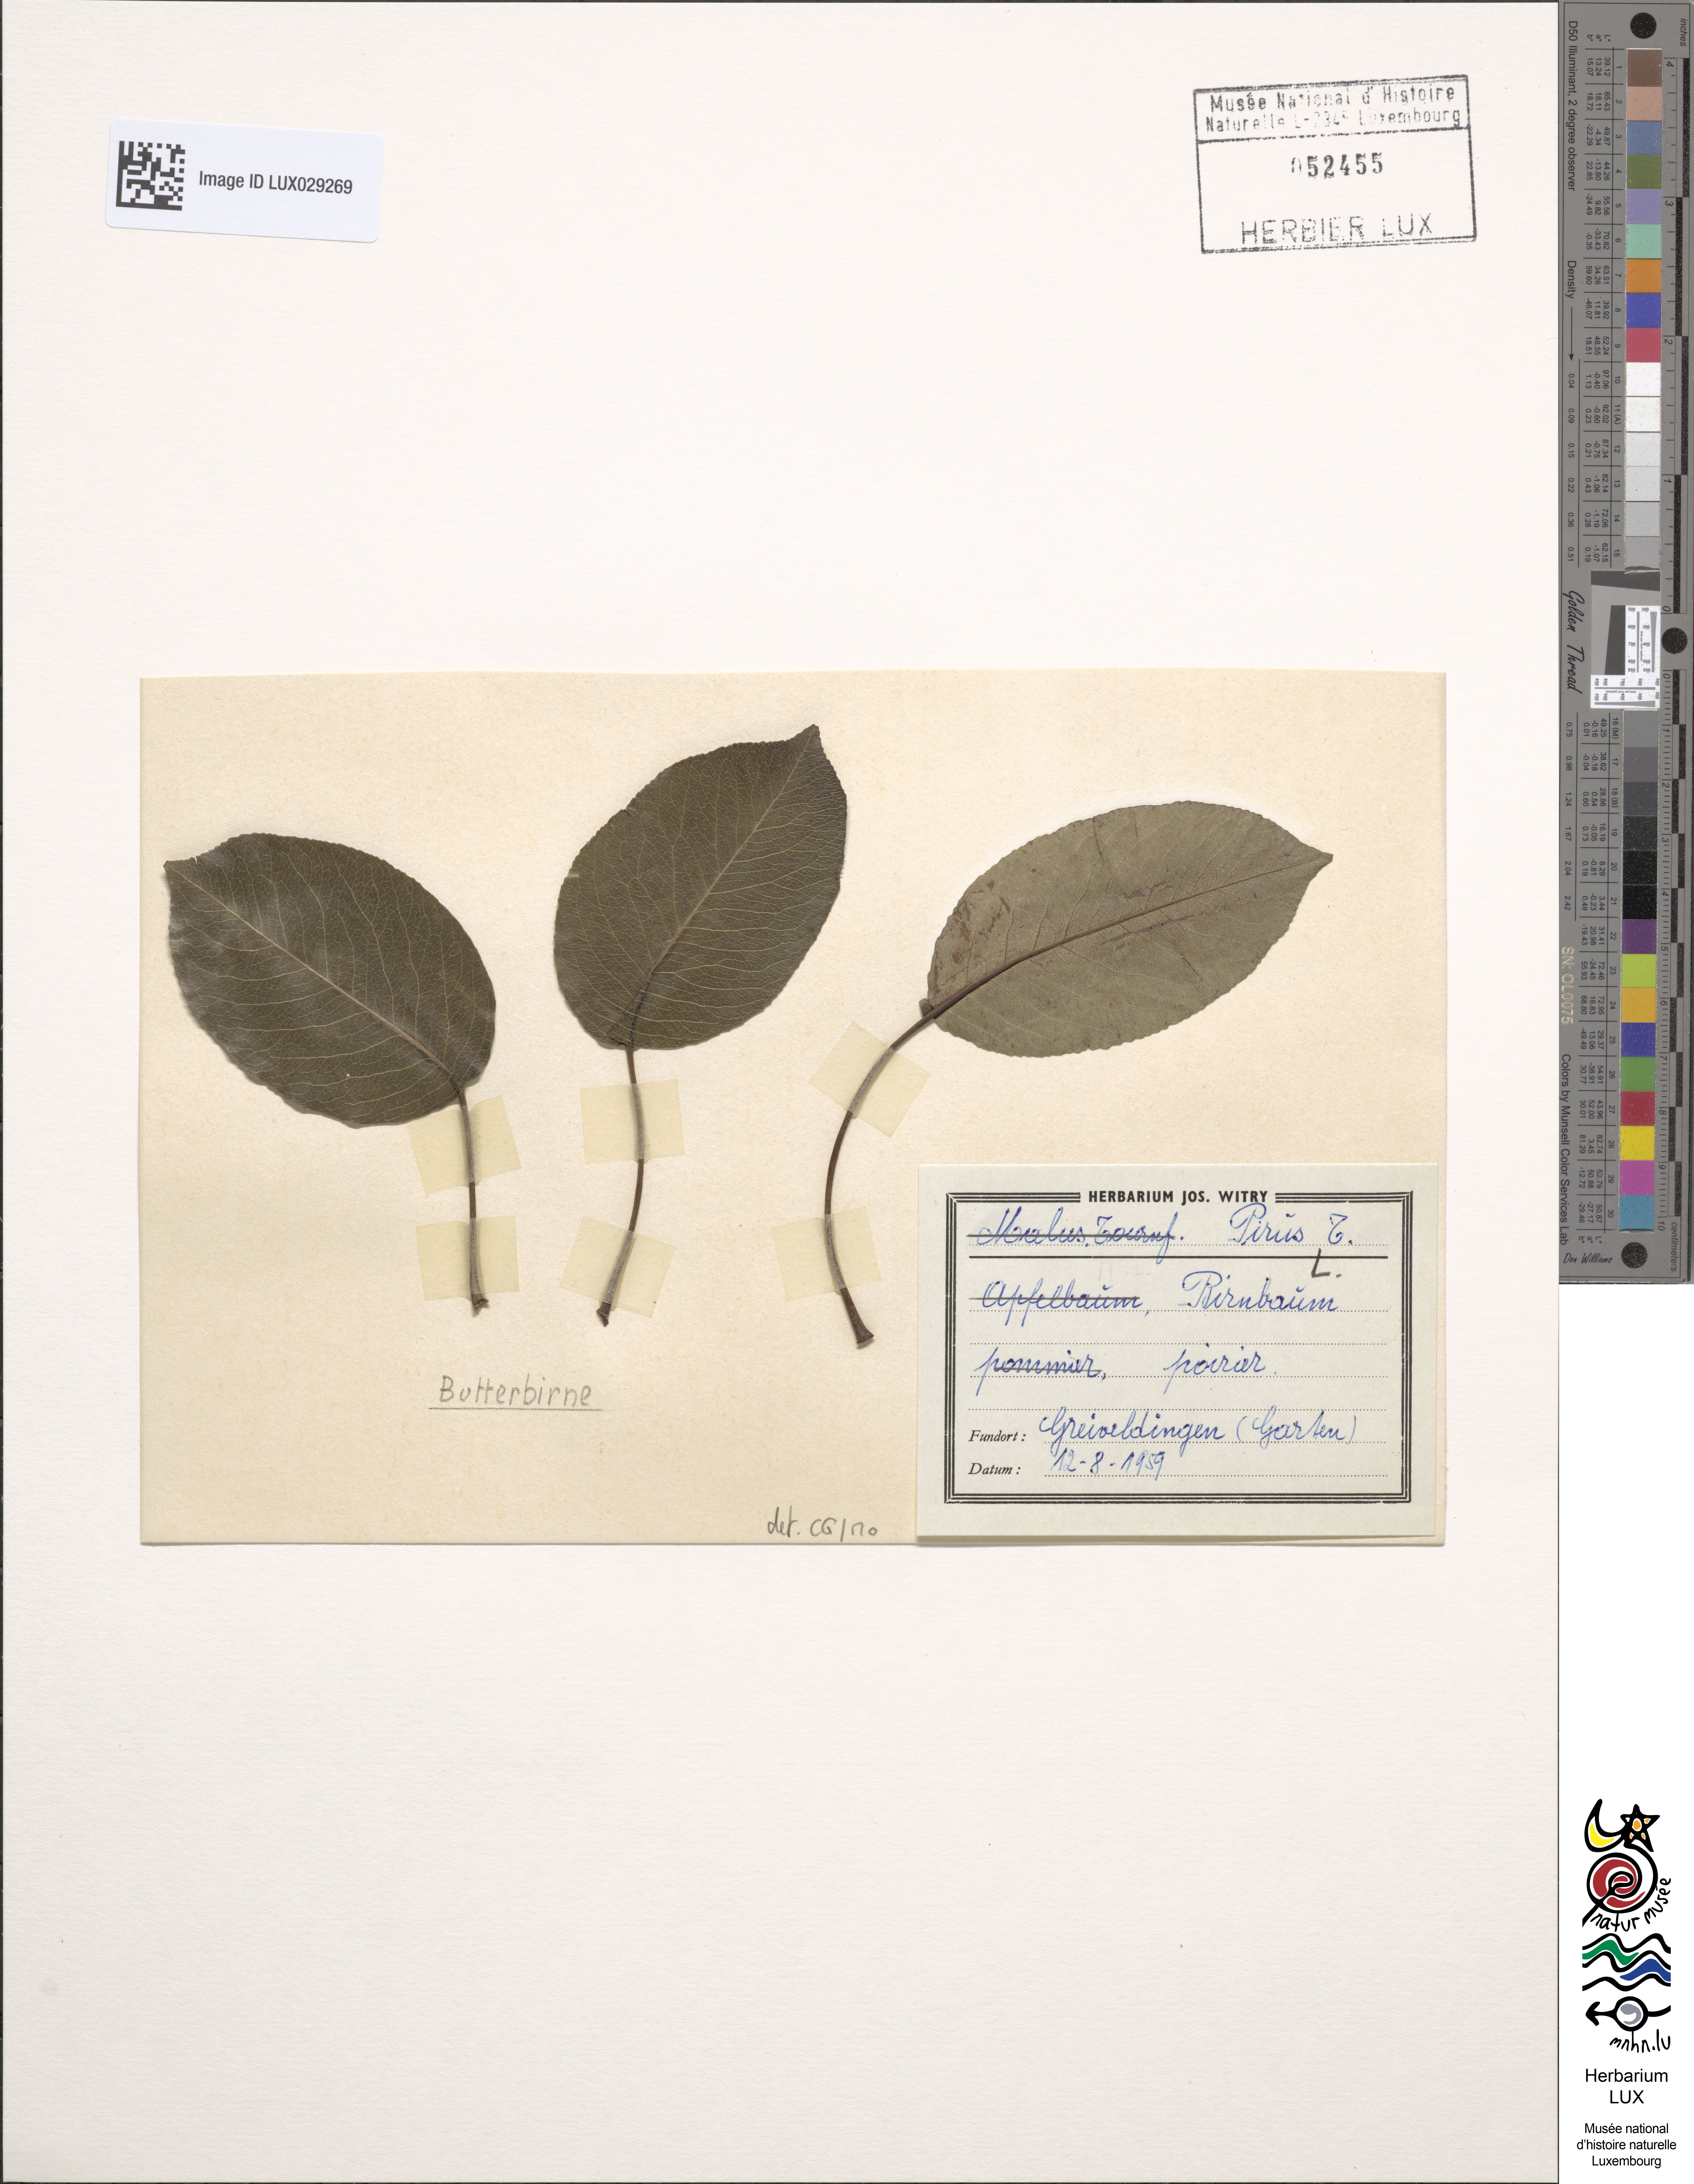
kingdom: Plantae
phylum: Tracheophyta
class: Magnoliopsida
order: Rosales
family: Rosaceae
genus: Pyrus
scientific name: Pyrus
